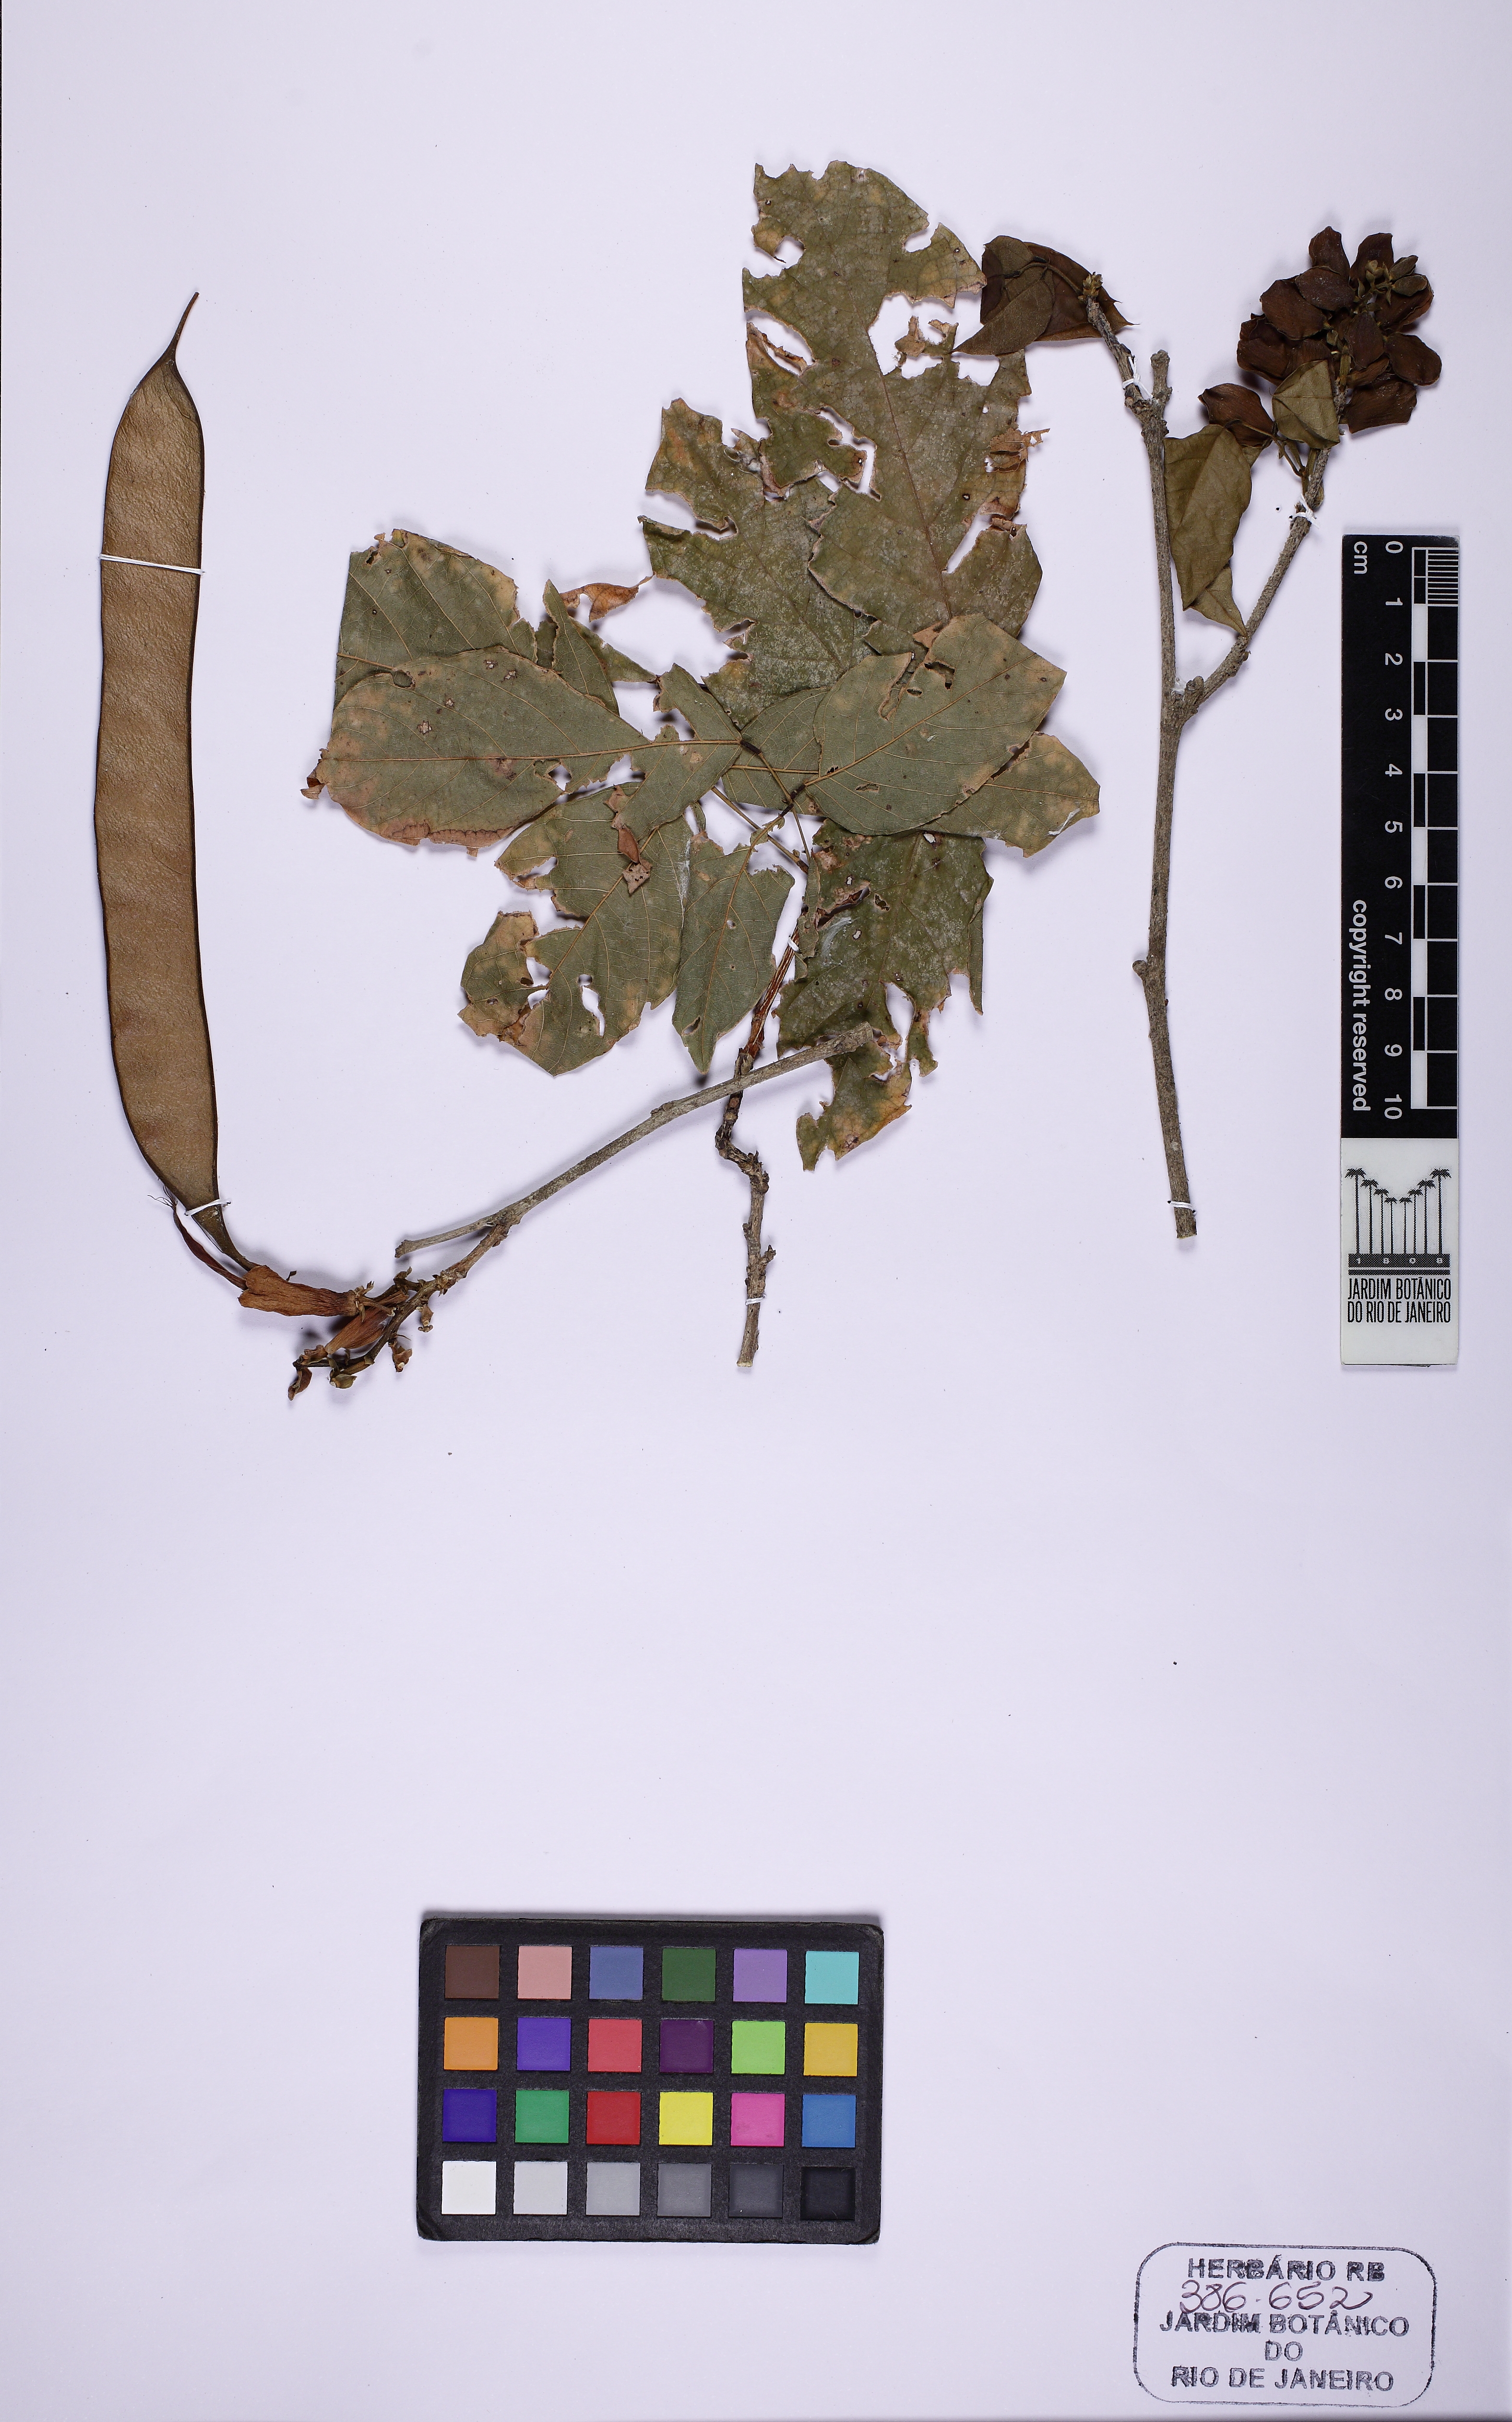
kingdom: Plantae
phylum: Tracheophyta
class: Magnoliopsida
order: Fabales
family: Fabaceae
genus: Clitoria
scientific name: Clitoria amazonum
